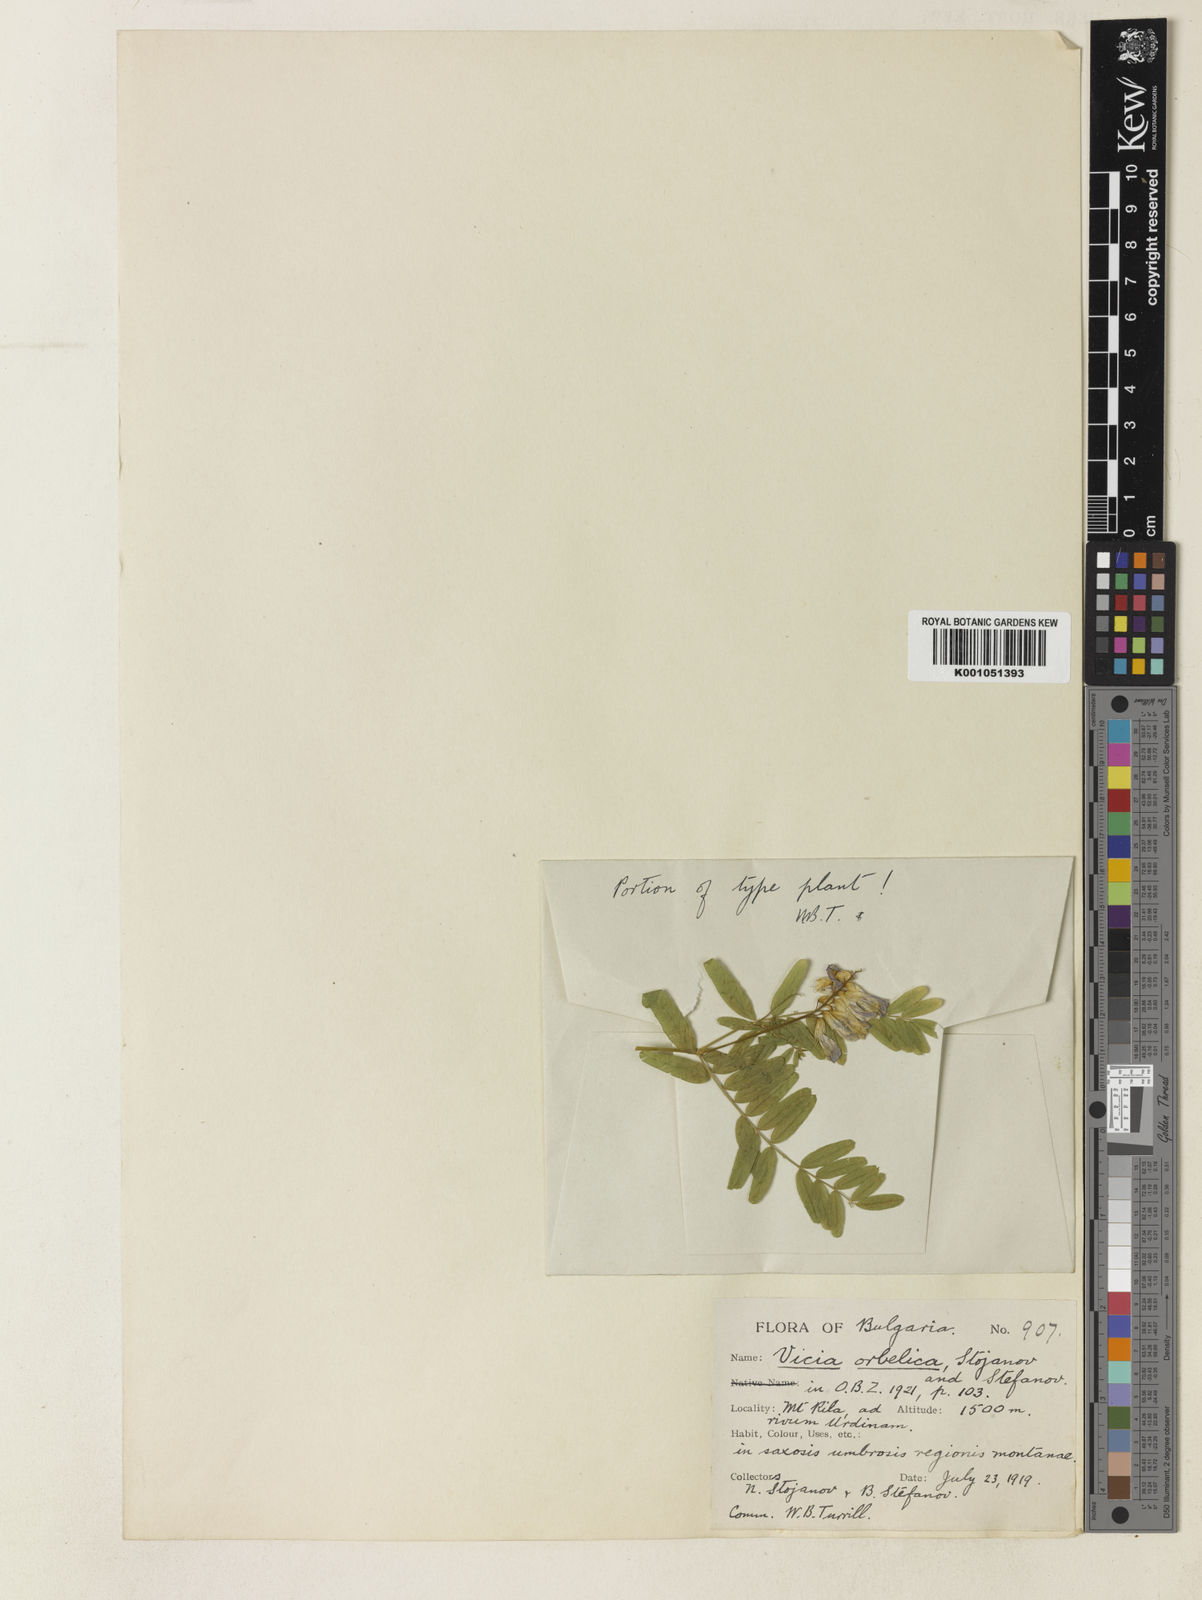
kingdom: Plantae
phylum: Tracheophyta
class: Magnoliopsida
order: Fabales
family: Fabaceae
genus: Vicia
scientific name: Vicia montenegrina
